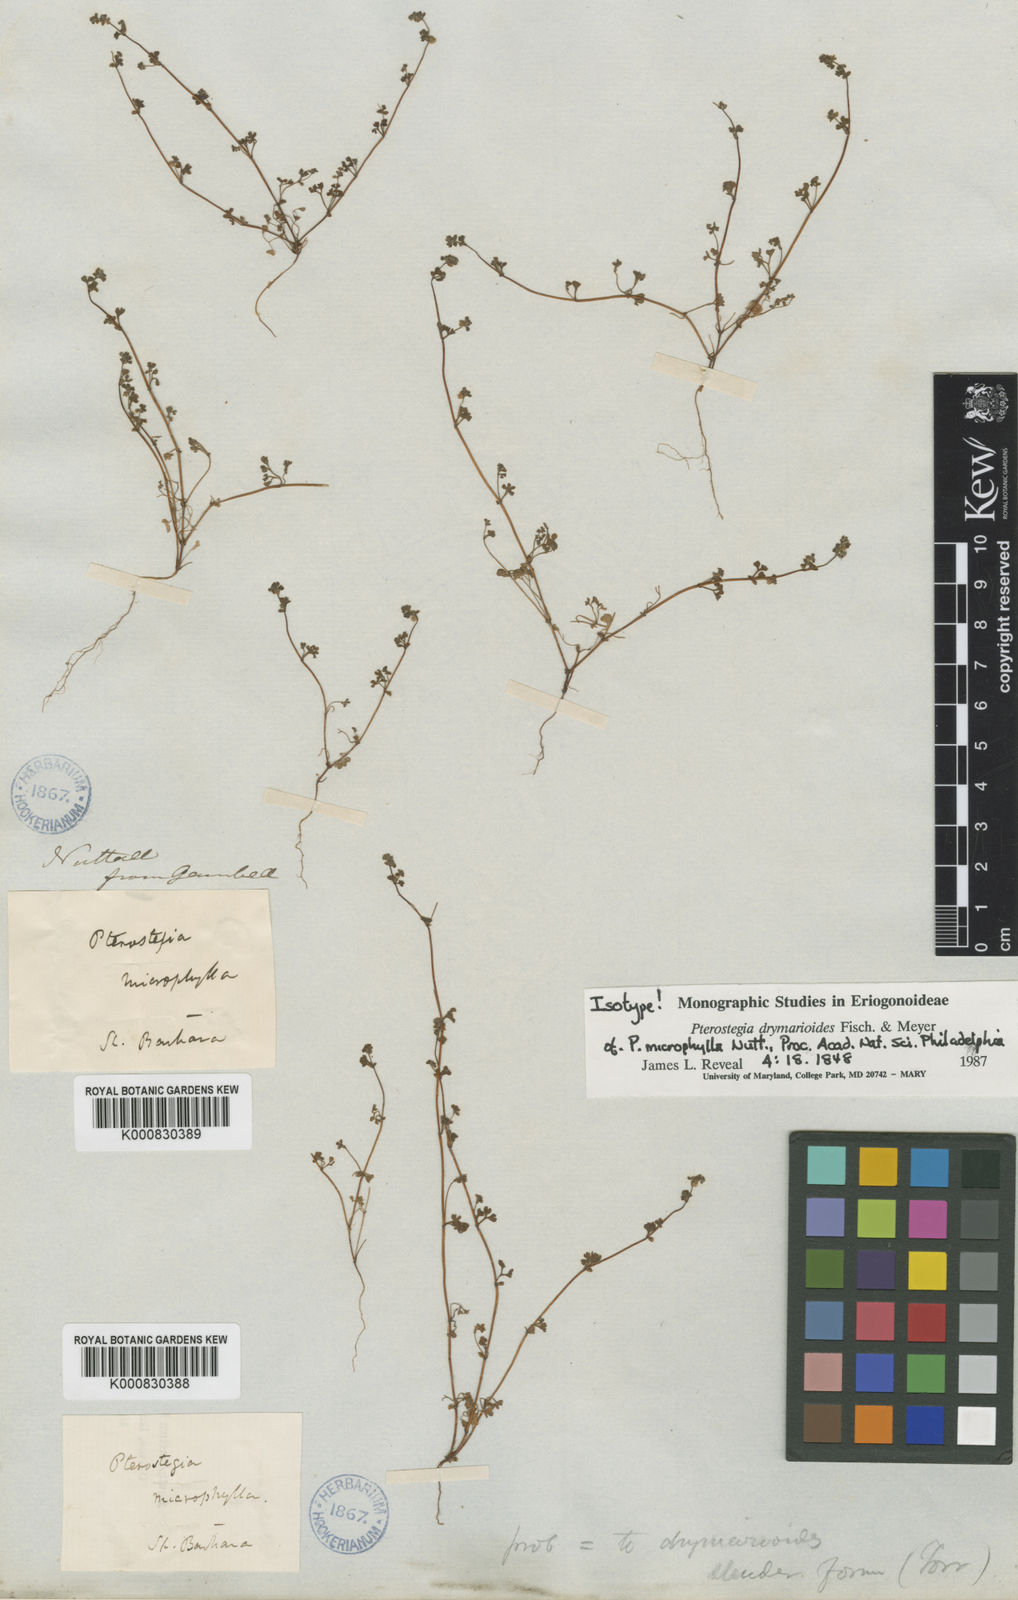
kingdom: Plantae
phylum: Tracheophyta
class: Magnoliopsida
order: Caryophyllales
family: Polygonaceae
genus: Pterostegia
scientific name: Pterostegia drymarioides
